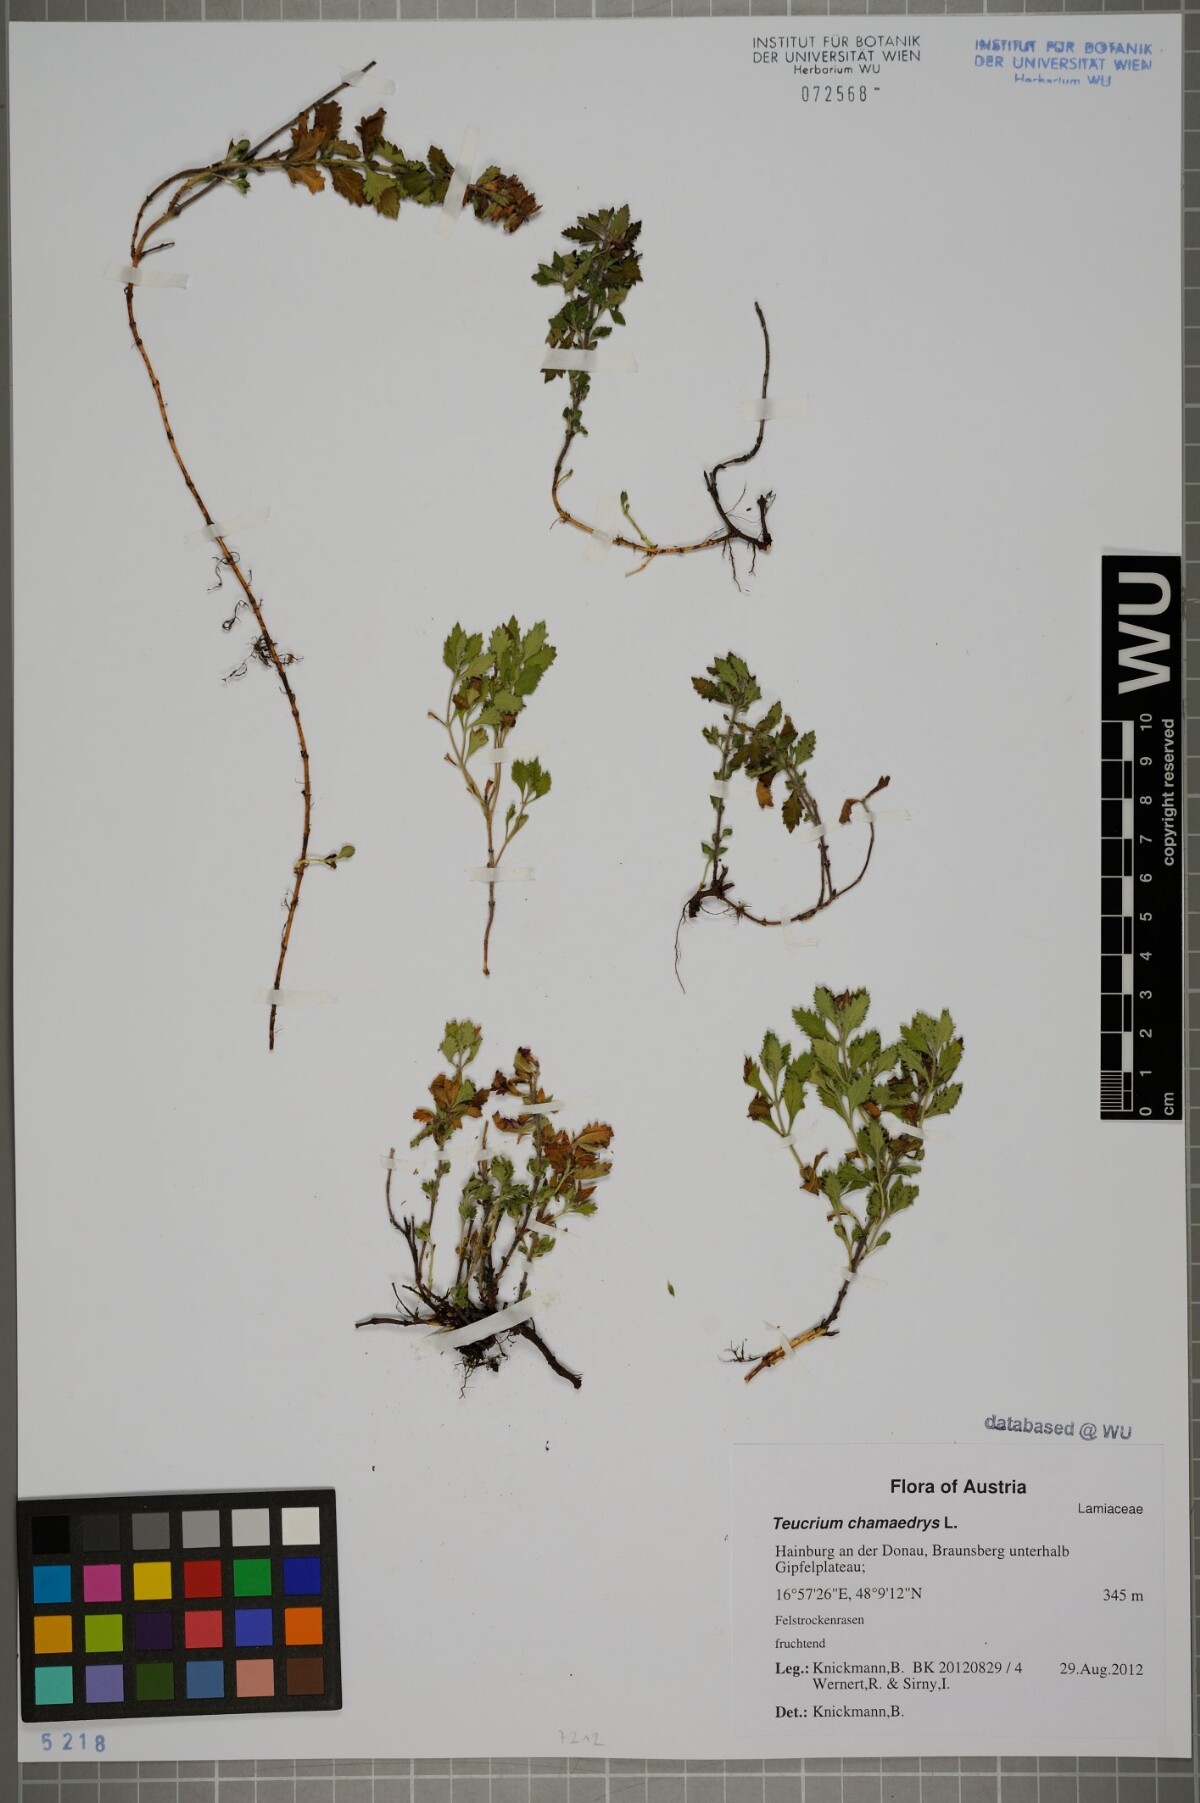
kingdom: Plantae
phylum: Tracheophyta
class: Magnoliopsida
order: Lamiales
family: Lamiaceae
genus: Teucrium
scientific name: Teucrium chamaedrys
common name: Wall germander
